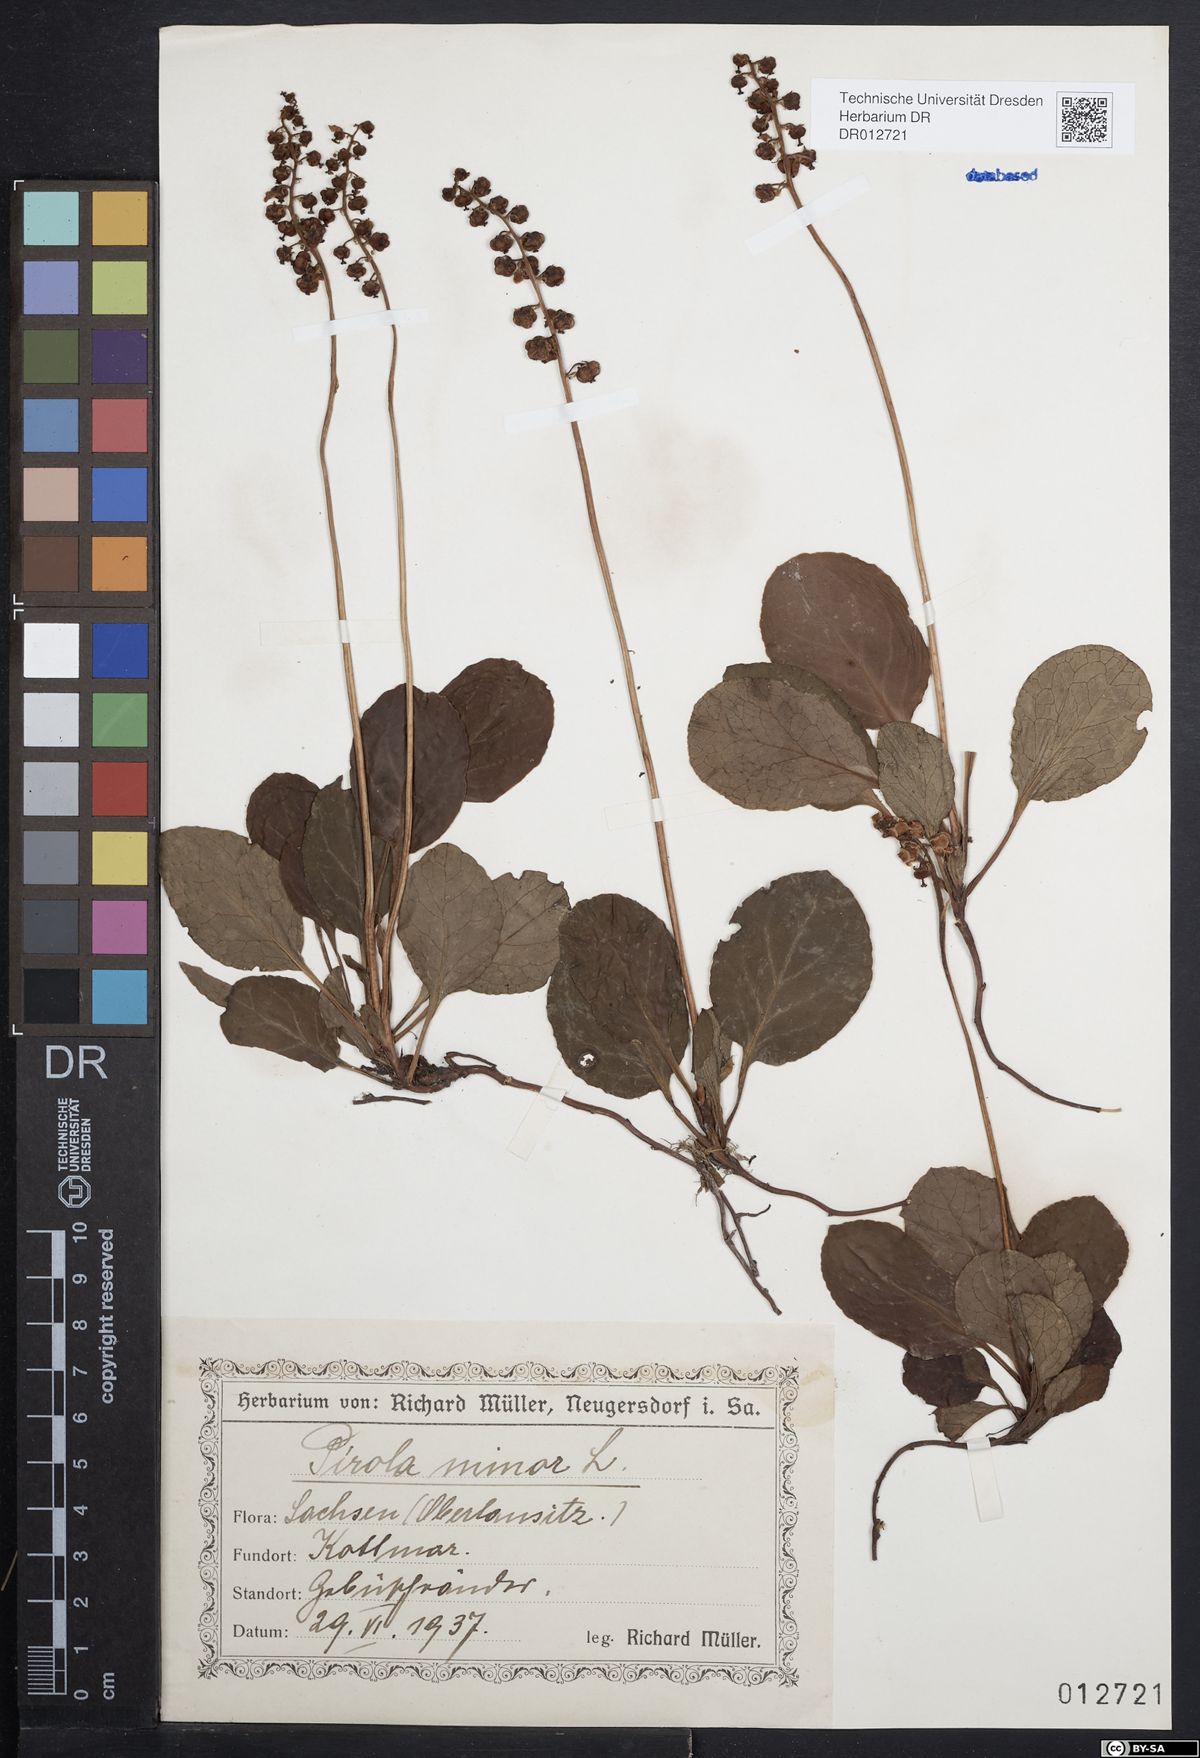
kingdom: Plantae
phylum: Tracheophyta
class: Magnoliopsida
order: Ericales
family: Ericaceae
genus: Pyrola
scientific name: Pyrola minor
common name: Common wintergreen
